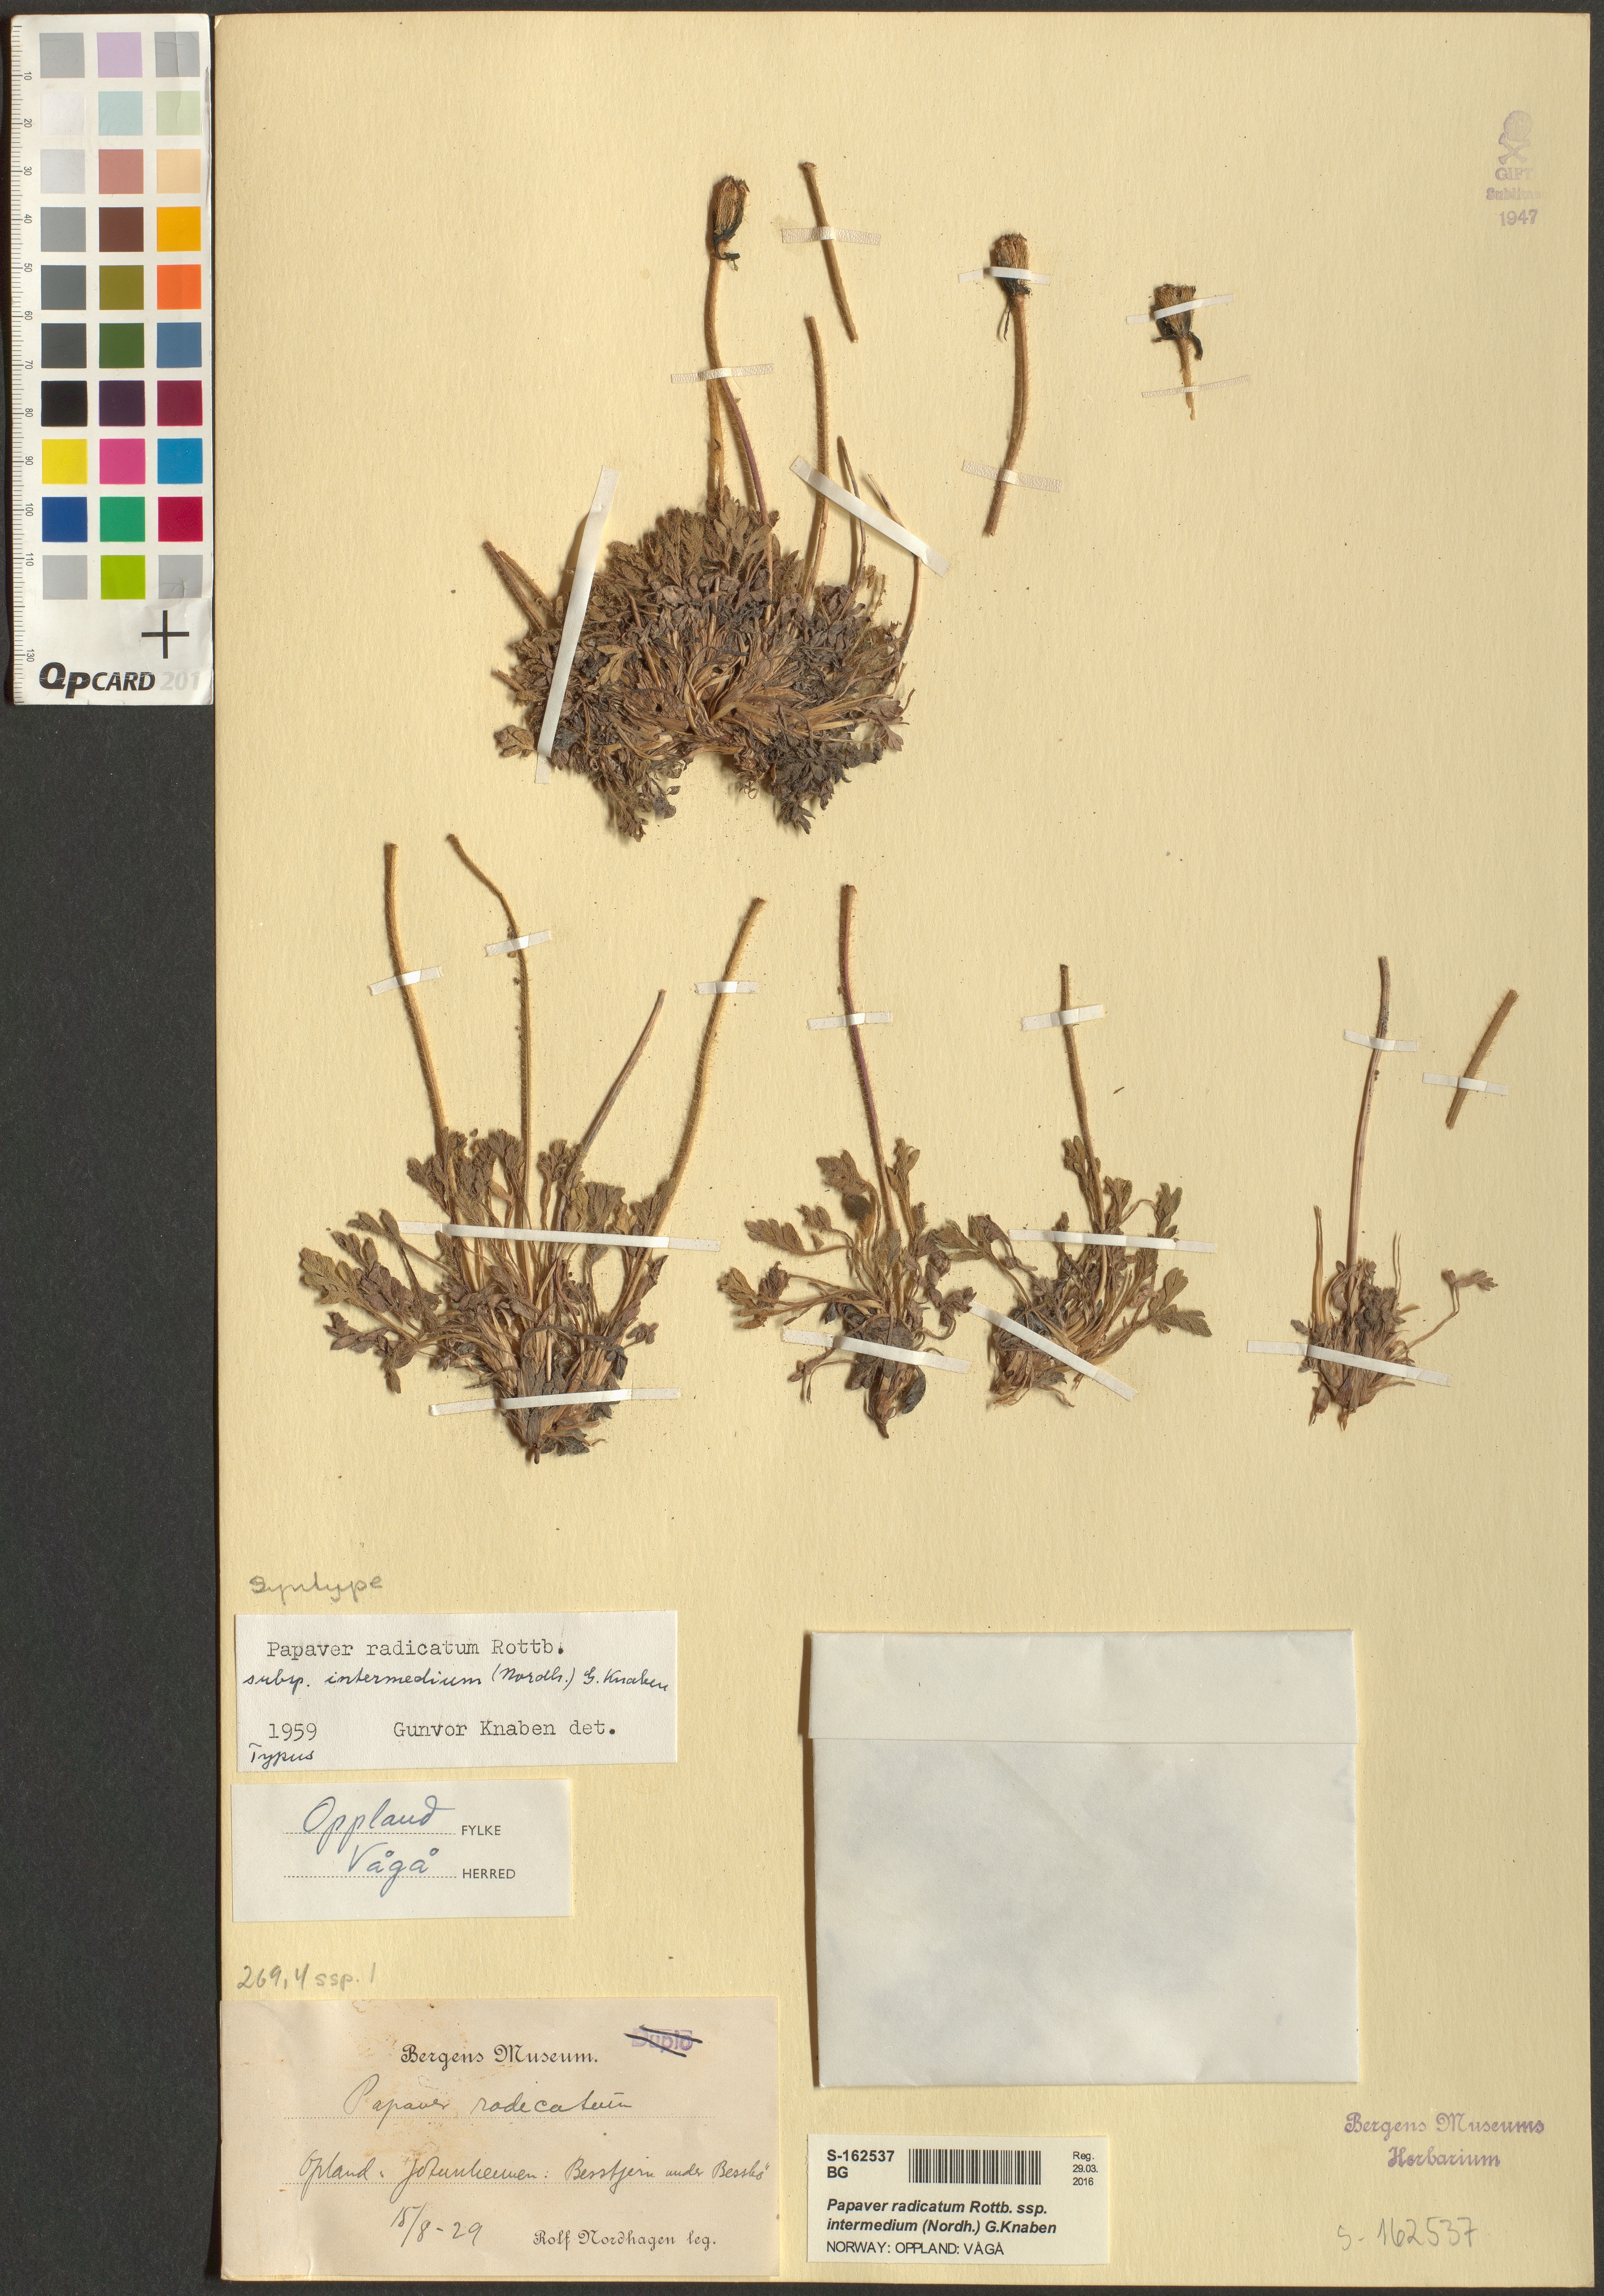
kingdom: Plantae
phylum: Tracheophyta
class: Magnoliopsida
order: Ranunculales
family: Papaveraceae
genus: Papaver
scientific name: Papaver radicatum
